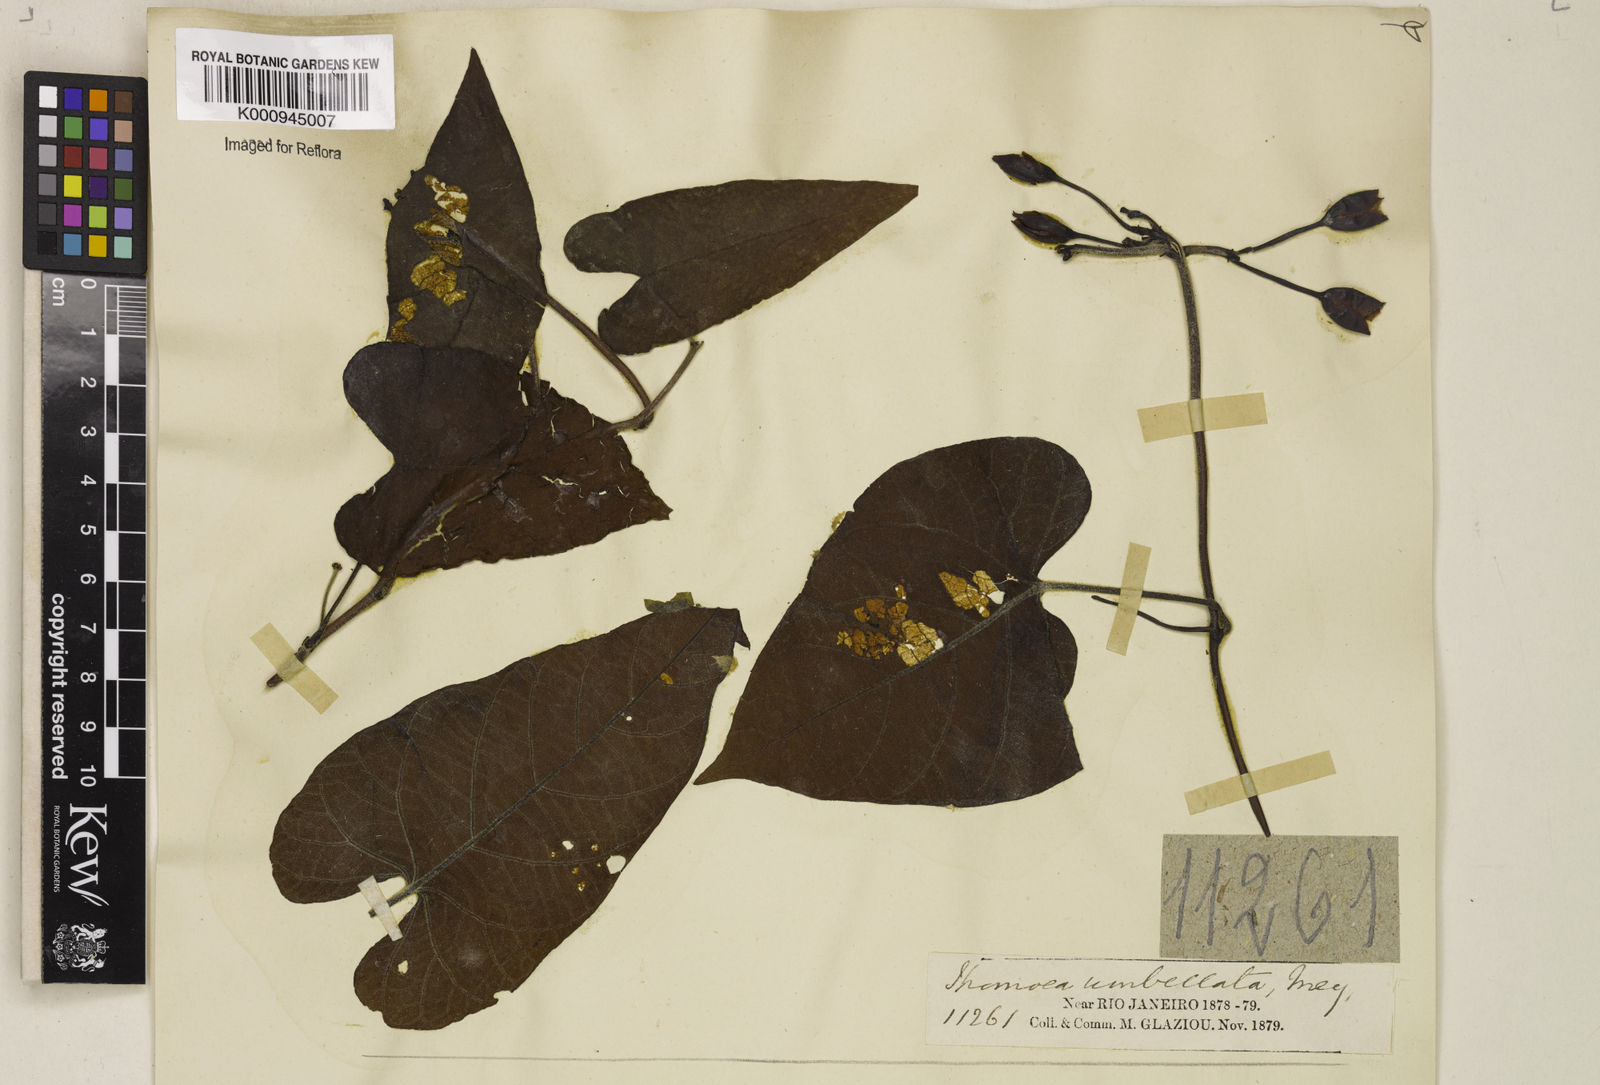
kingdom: Plantae
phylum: Tracheophyta
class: Magnoliopsida
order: Solanales
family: Convolvulaceae
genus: Camonea
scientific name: Camonea umbellata
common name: Hogvine
